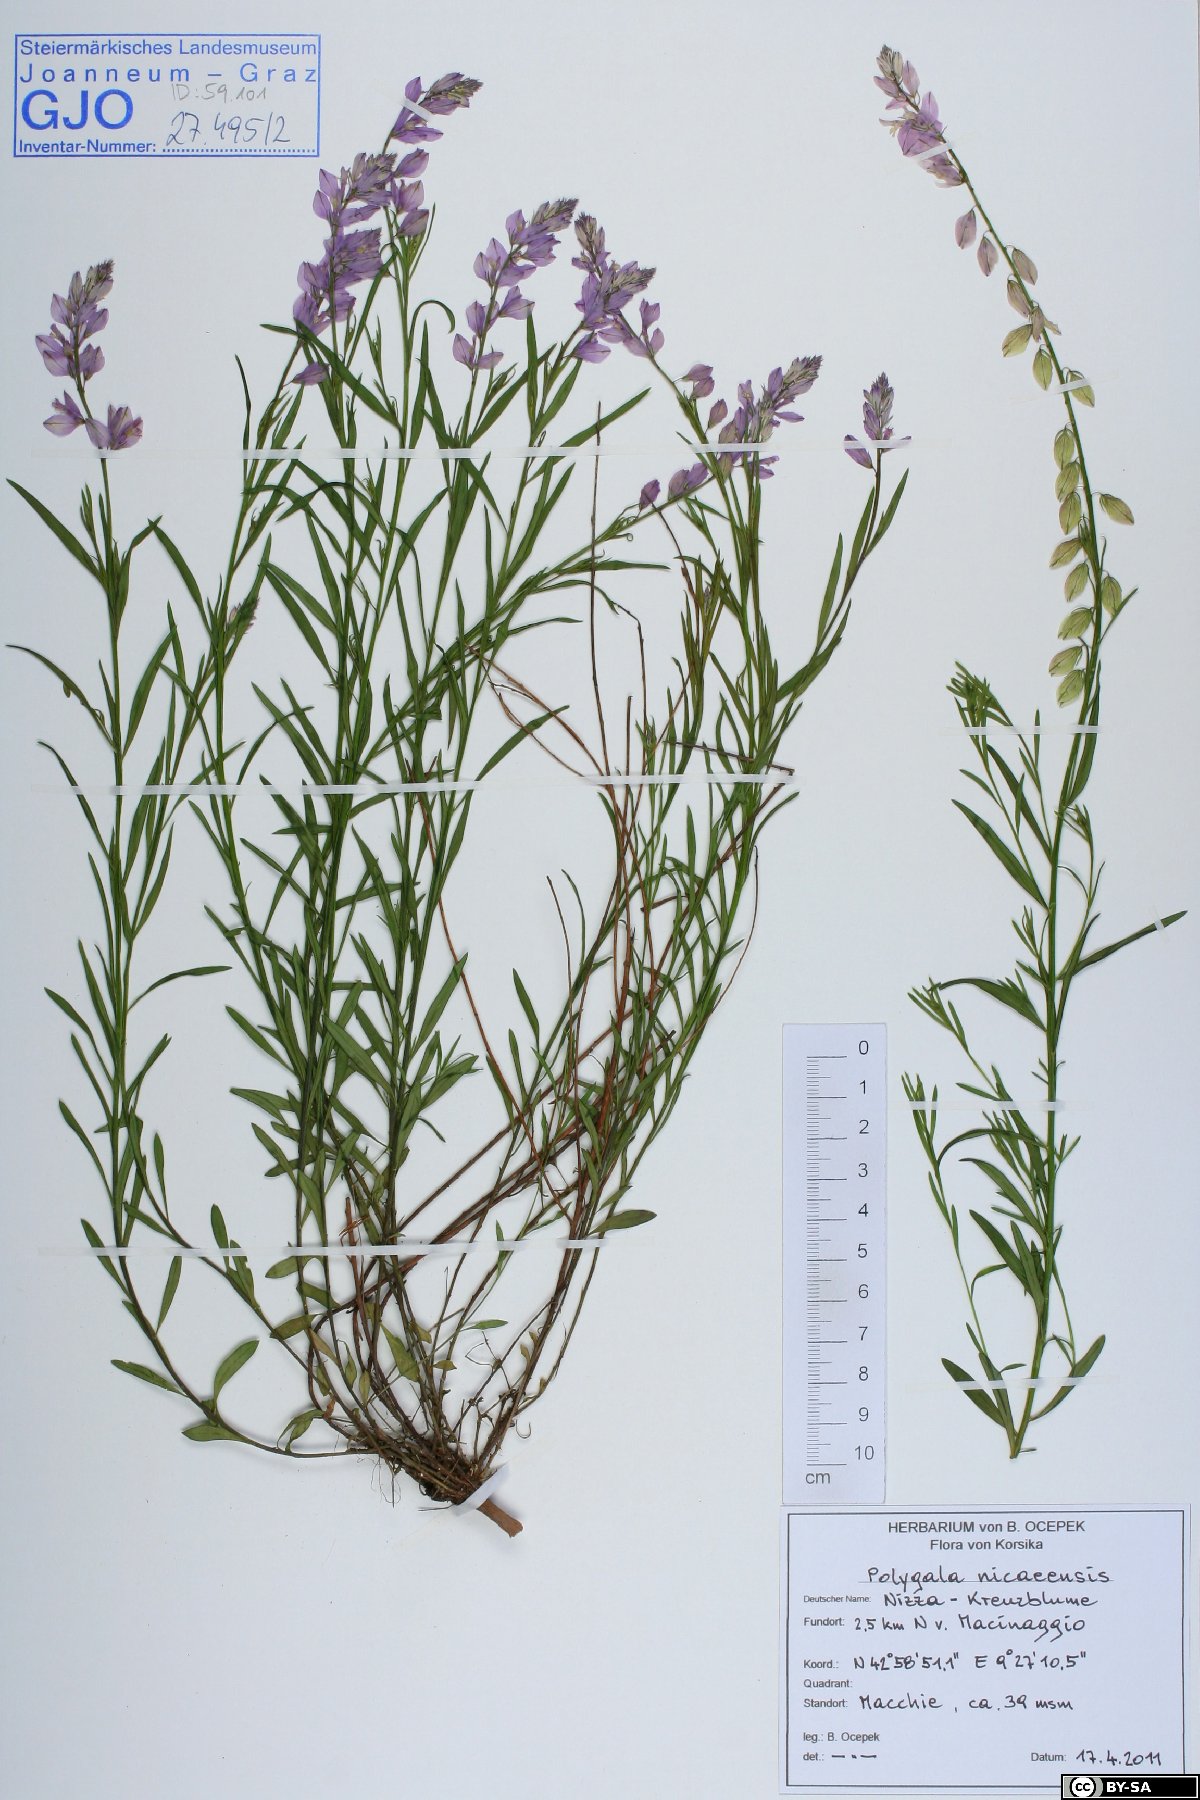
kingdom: Plantae
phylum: Tracheophyta
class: Magnoliopsida
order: Fabales
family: Polygalaceae
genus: Polygala
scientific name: Polygala nicaeensis
